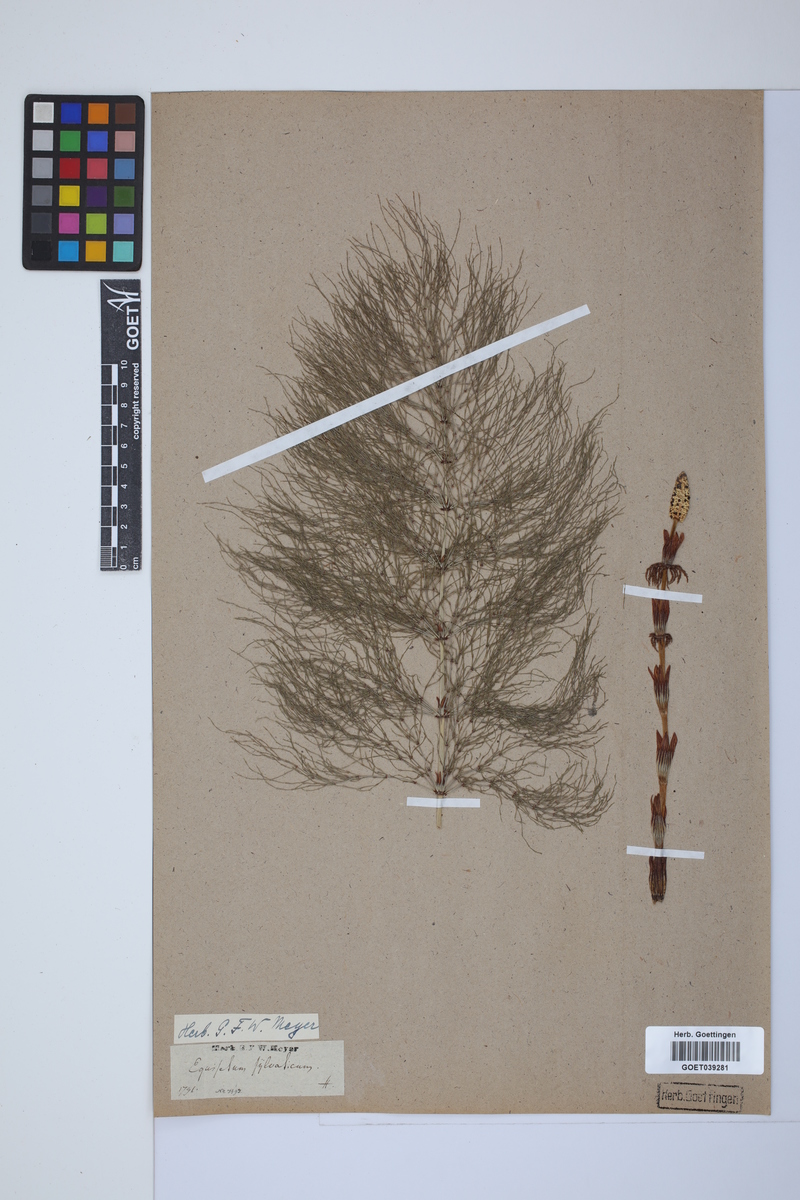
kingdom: Plantae
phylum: Tracheophyta
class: Polypodiopsida
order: Equisetales
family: Equisetaceae
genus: Equisetum
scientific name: Equisetum sylvaticum
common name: Wood horsetail
